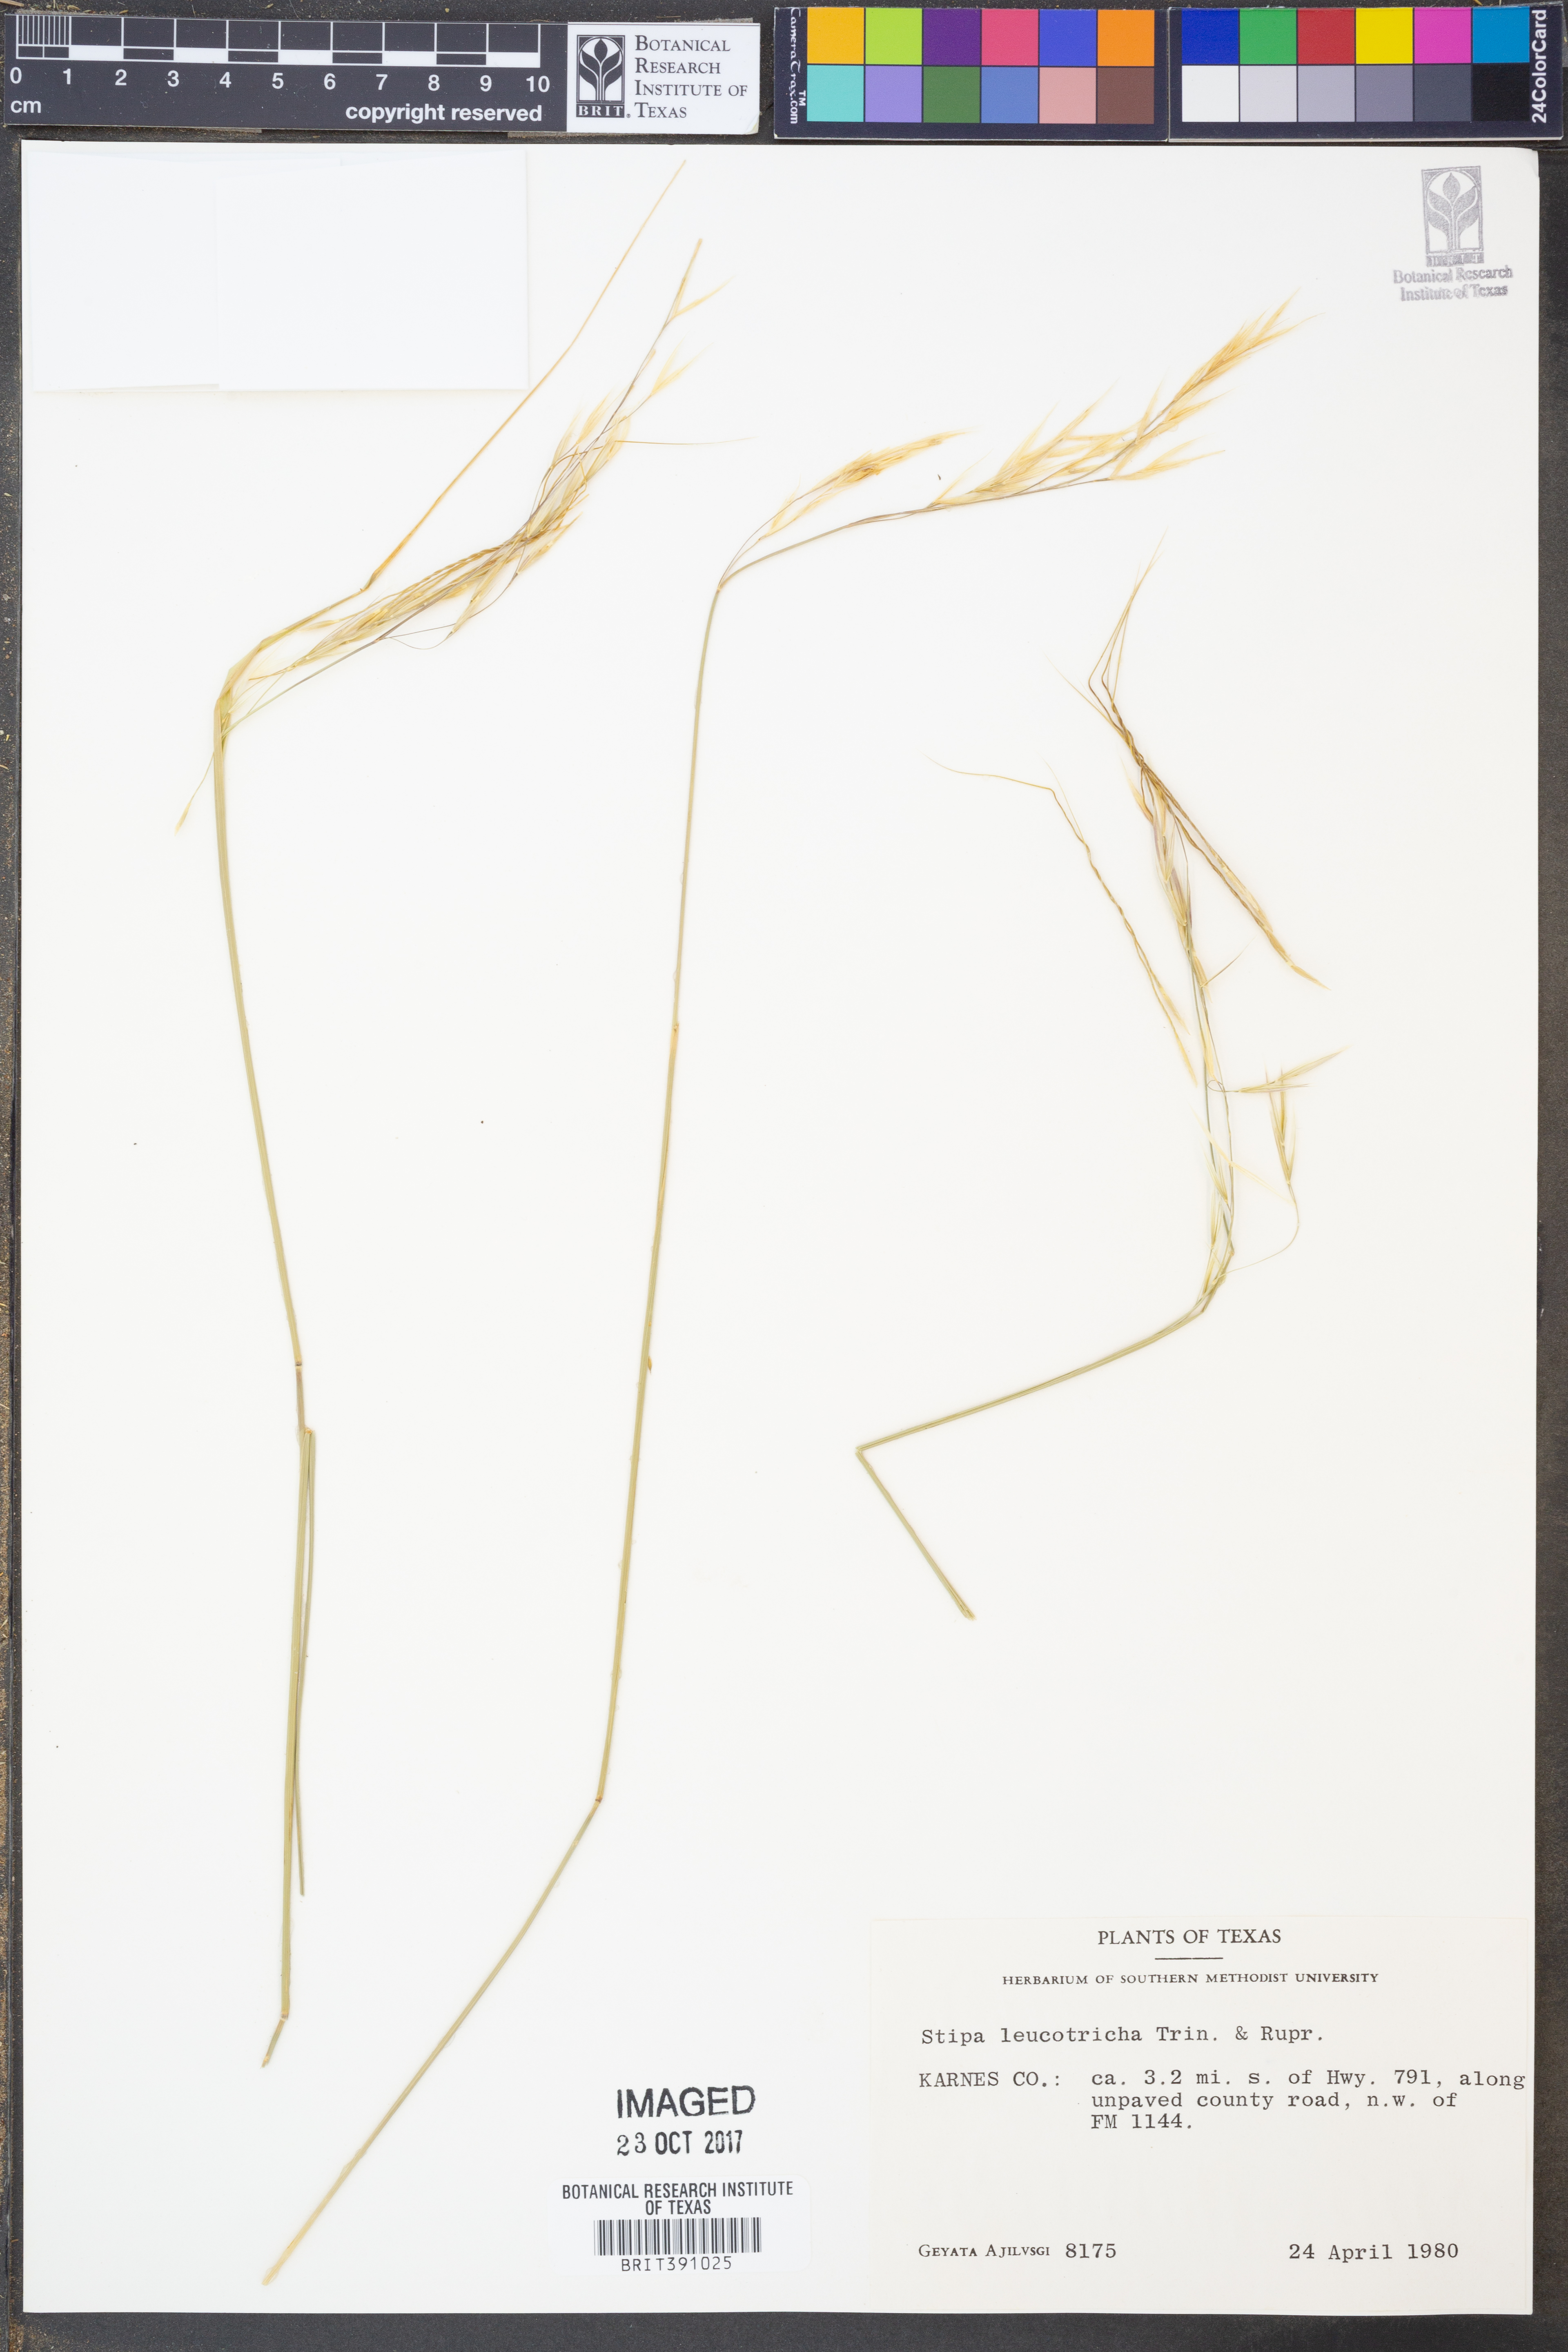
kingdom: Plantae
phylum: Tracheophyta
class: Liliopsida
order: Poales
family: Poaceae
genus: Nassella
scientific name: Nassella leucotricha
